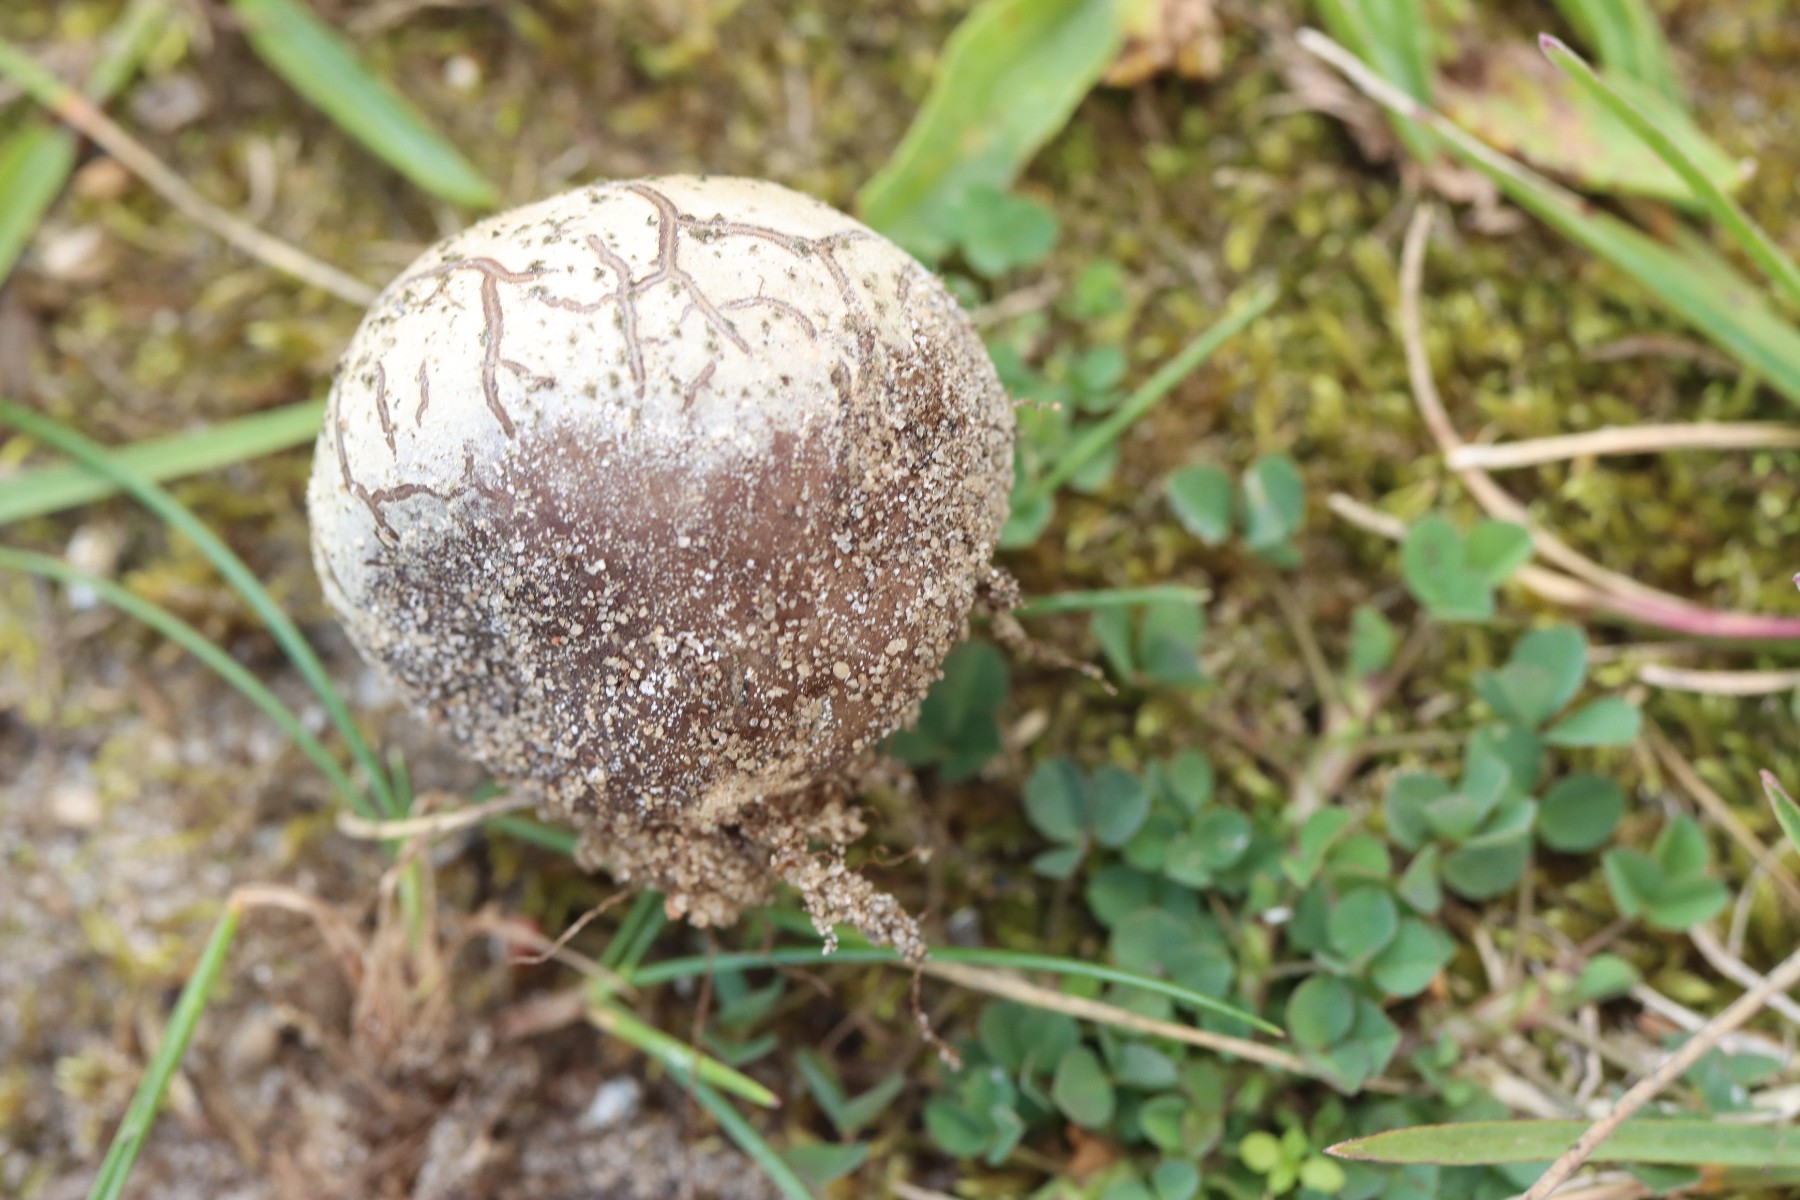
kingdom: Fungi
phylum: Basidiomycota
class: Agaricomycetes
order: Agaricales
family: Lycoperdaceae
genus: Bovista
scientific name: Bovista plumbea
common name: blygrå bovist
